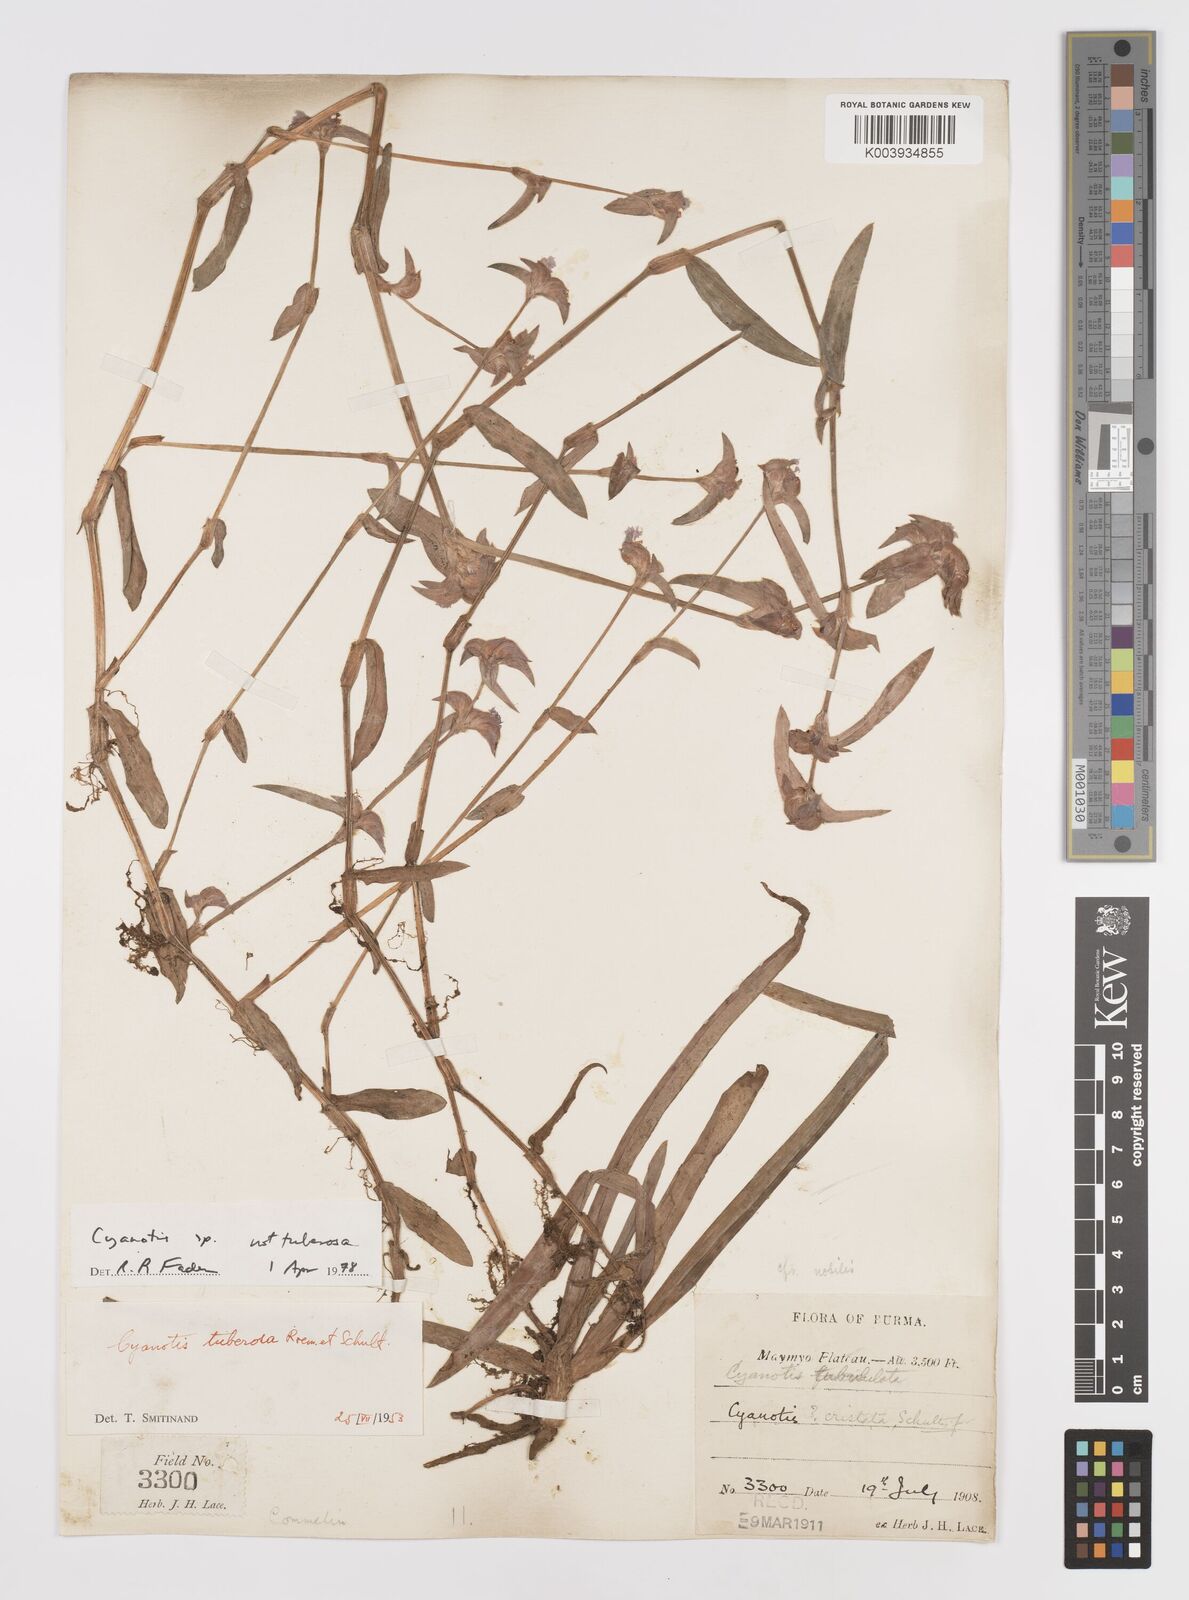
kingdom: Plantae
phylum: Tracheophyta
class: Liliopsida
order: Commelinales
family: Commelinaceae
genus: Cyanotis
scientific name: Cyanotis
